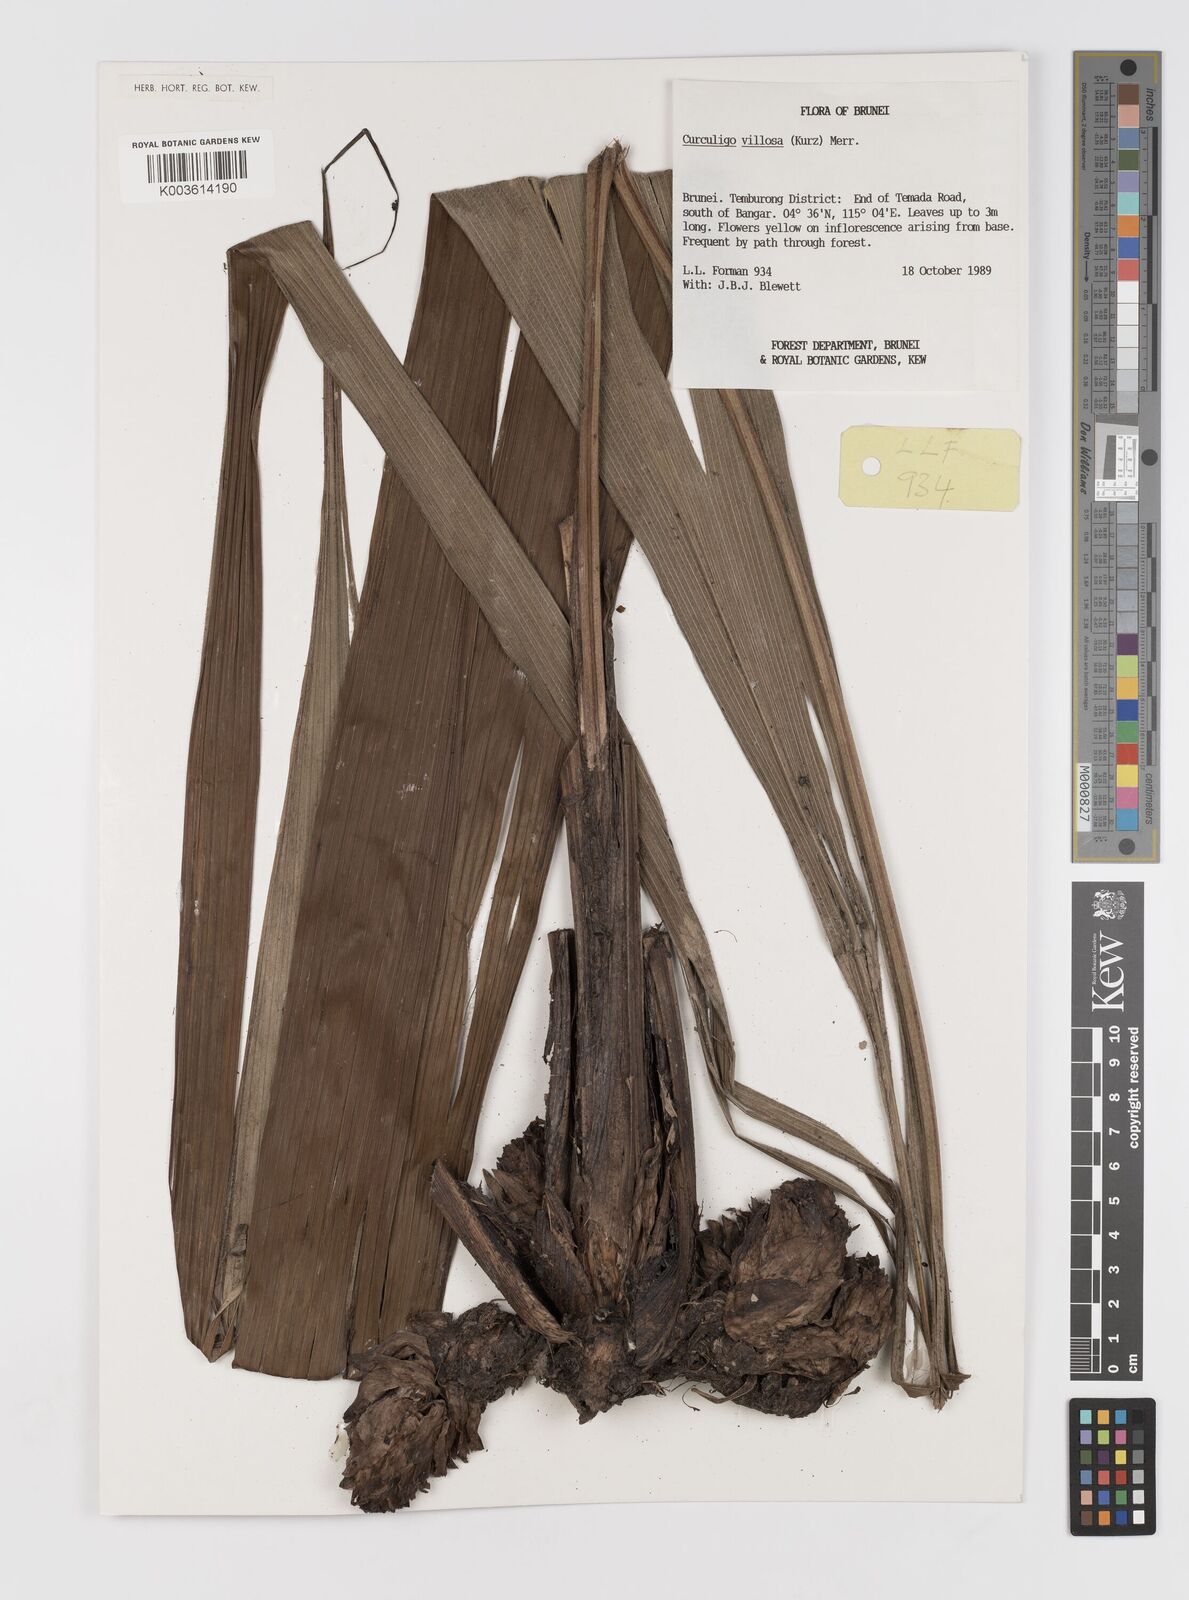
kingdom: Plantae
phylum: Tracheophyta
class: Liliopsida
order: Asparagales
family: Hypoxidaceae
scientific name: Hypoxidaceae
